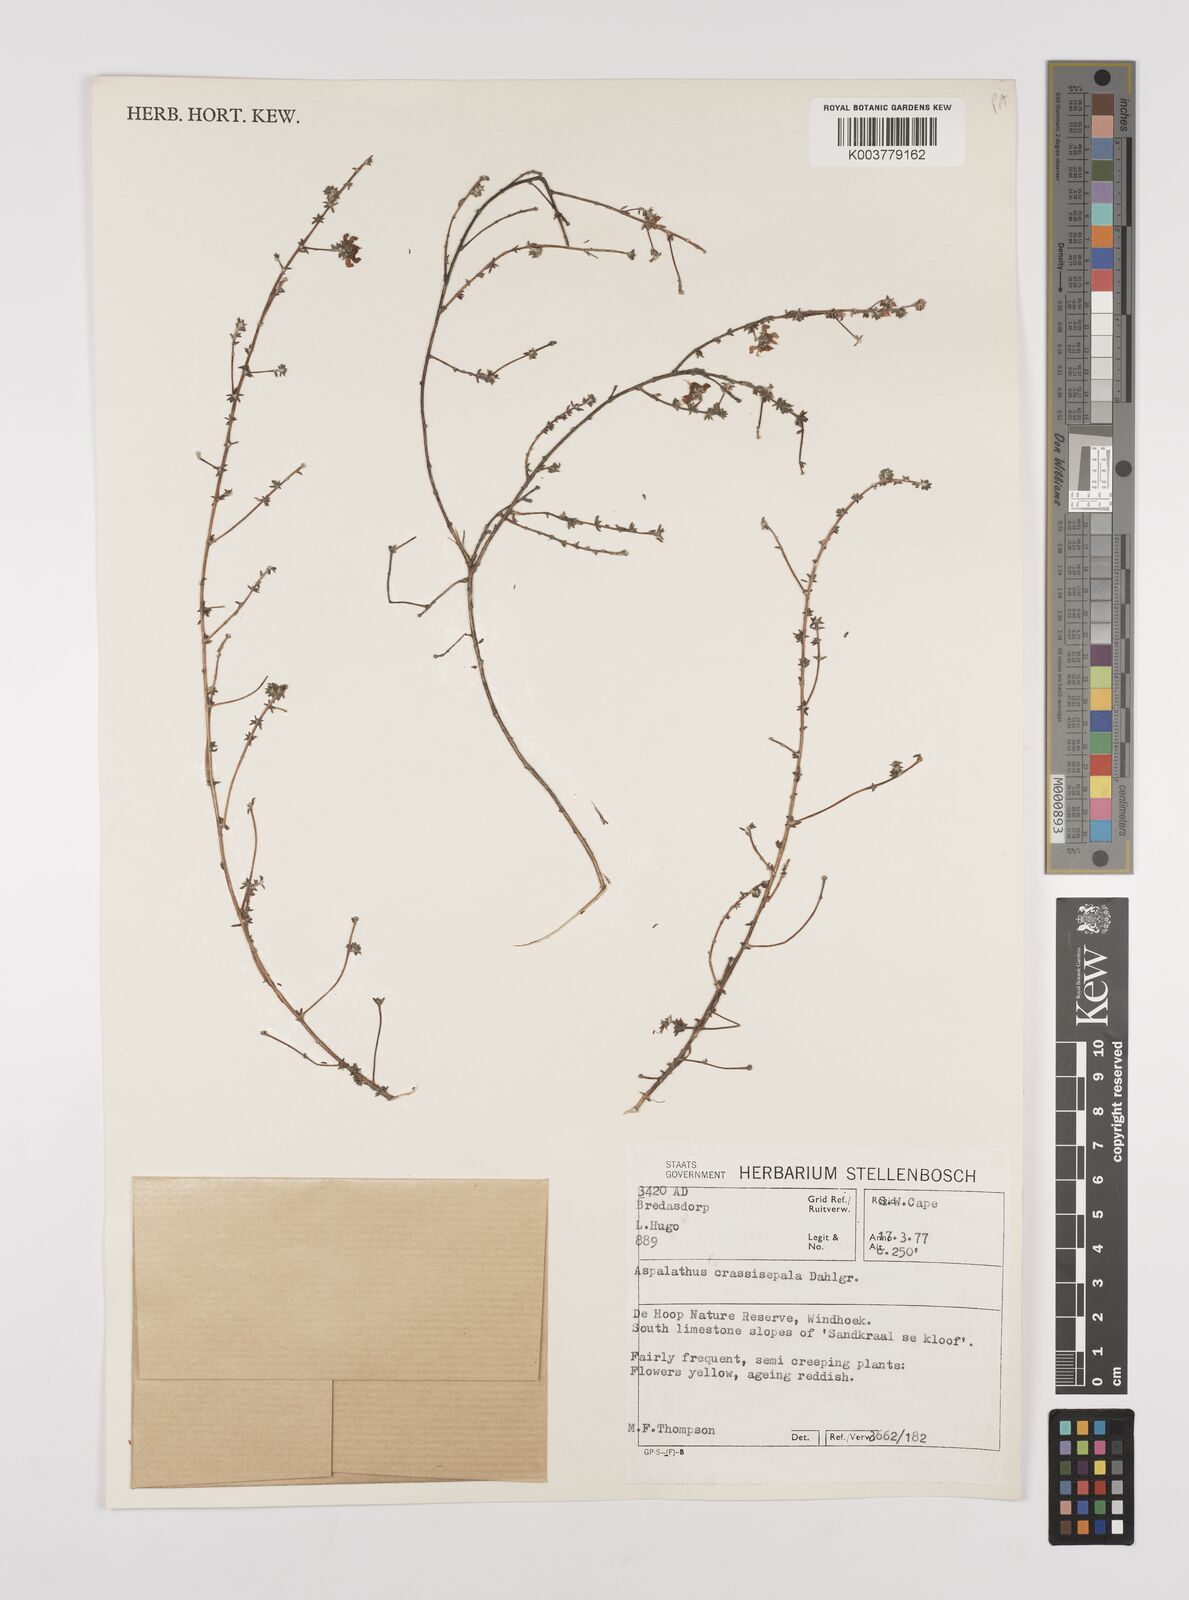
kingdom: Plantae
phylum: Tracheophyta
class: Magnoliopsida
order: Fabales
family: Fabaceae
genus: Aspalathus
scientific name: Aspalathus crassisepala
